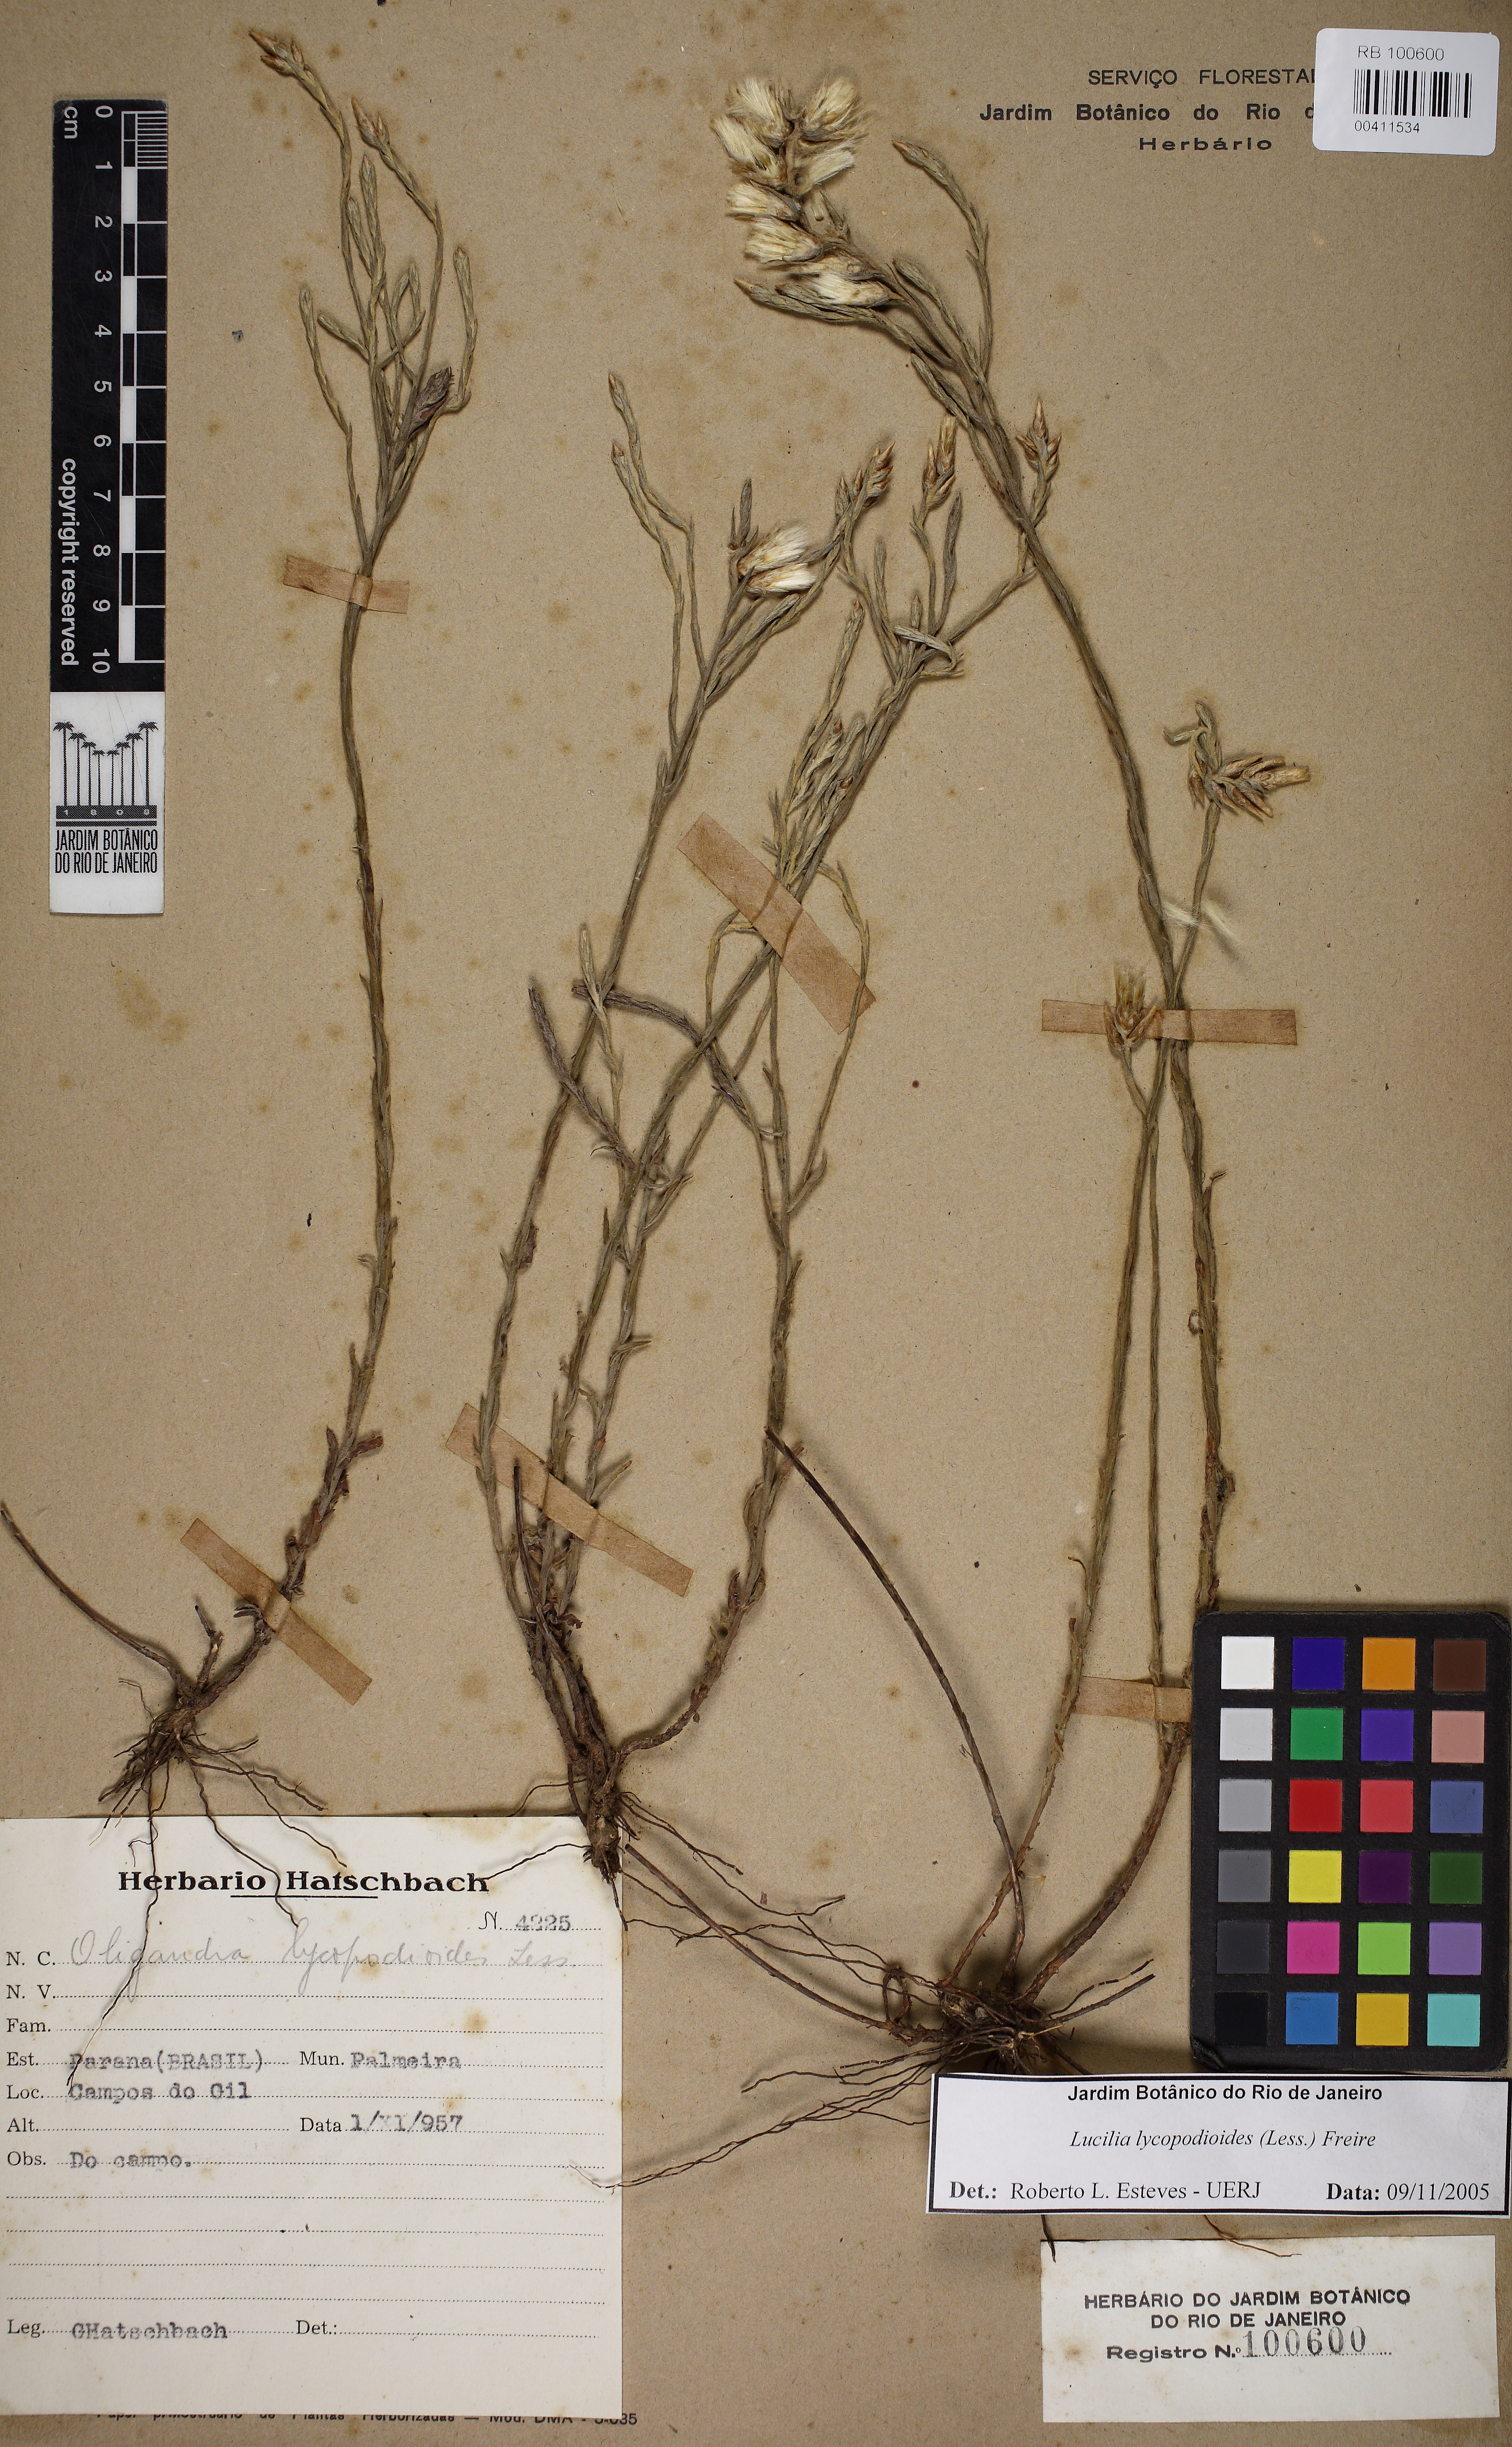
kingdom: Plantae
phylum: Tracheophyta
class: Magnoliopsida
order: Asterales
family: Asteraceae
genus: Lucilia
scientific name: Lucilia lycopodioides
